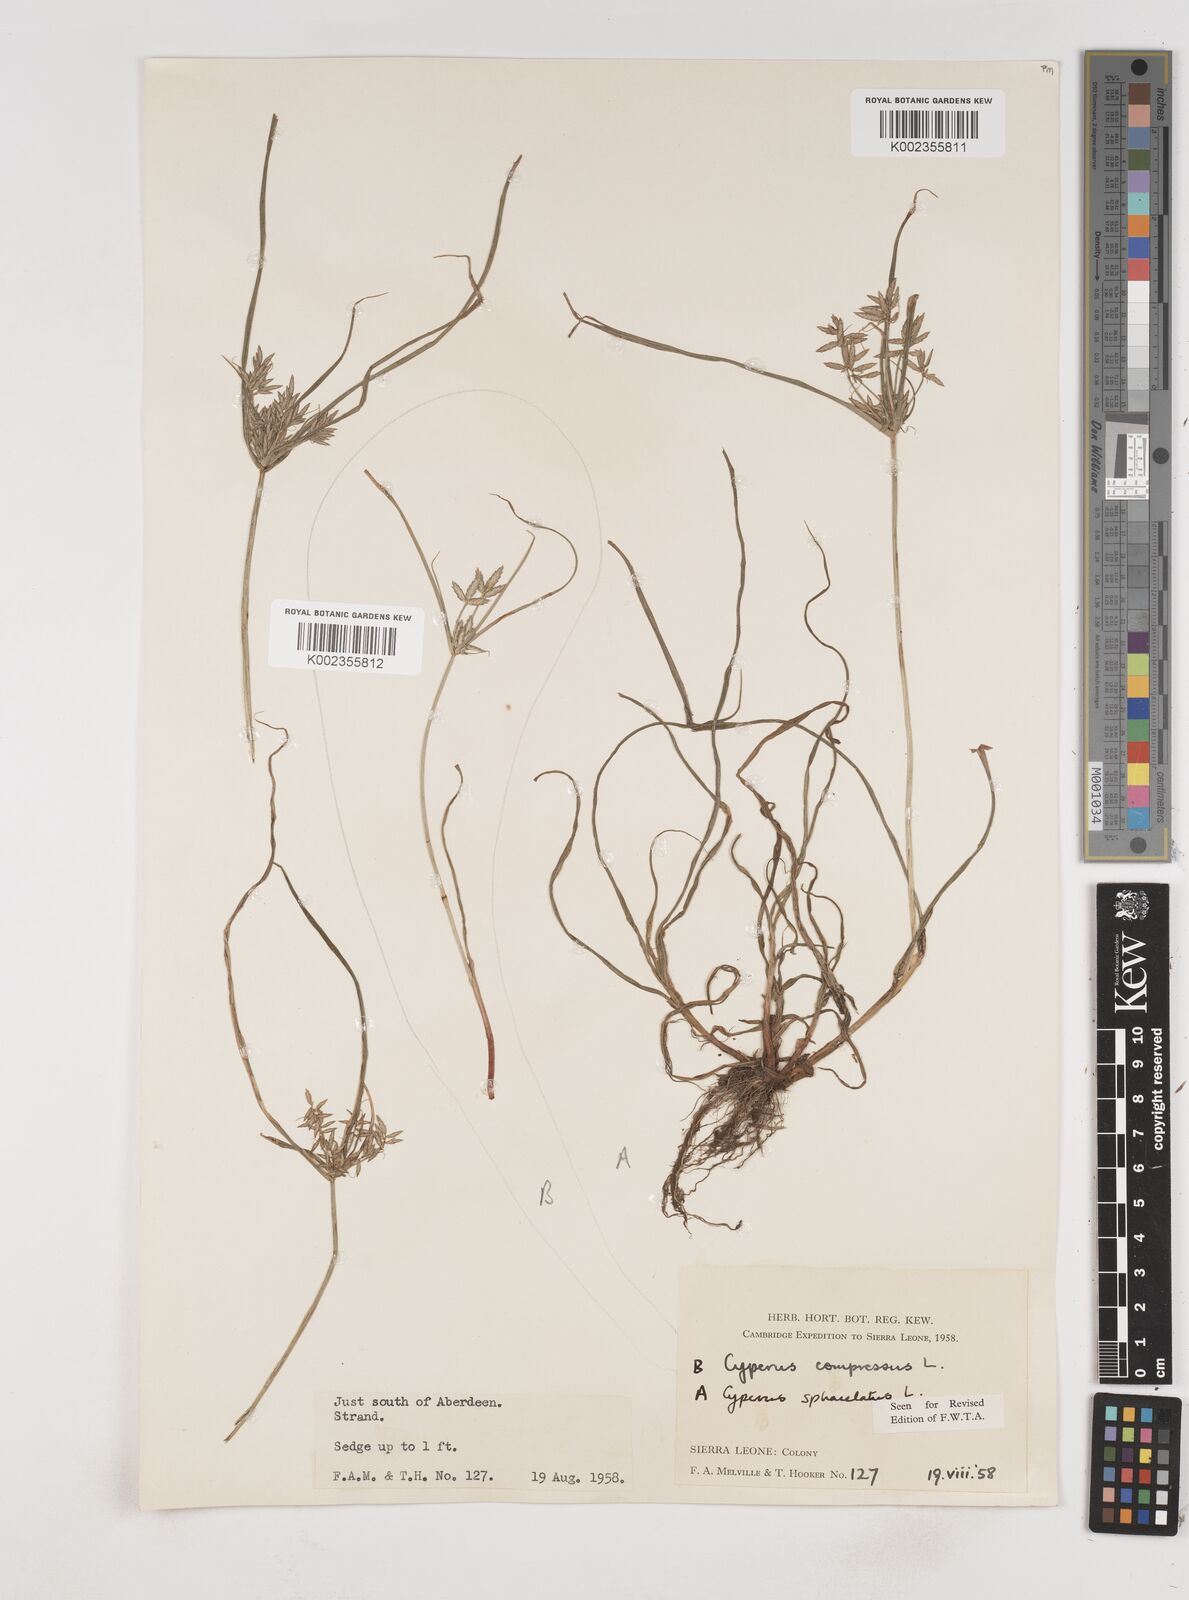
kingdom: Plantae
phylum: Tracheophyta
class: Liliopsida
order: Poales
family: Cyperaceae
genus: Cyperus
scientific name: Cyperus sphacelatus
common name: Roadside flatsedge
